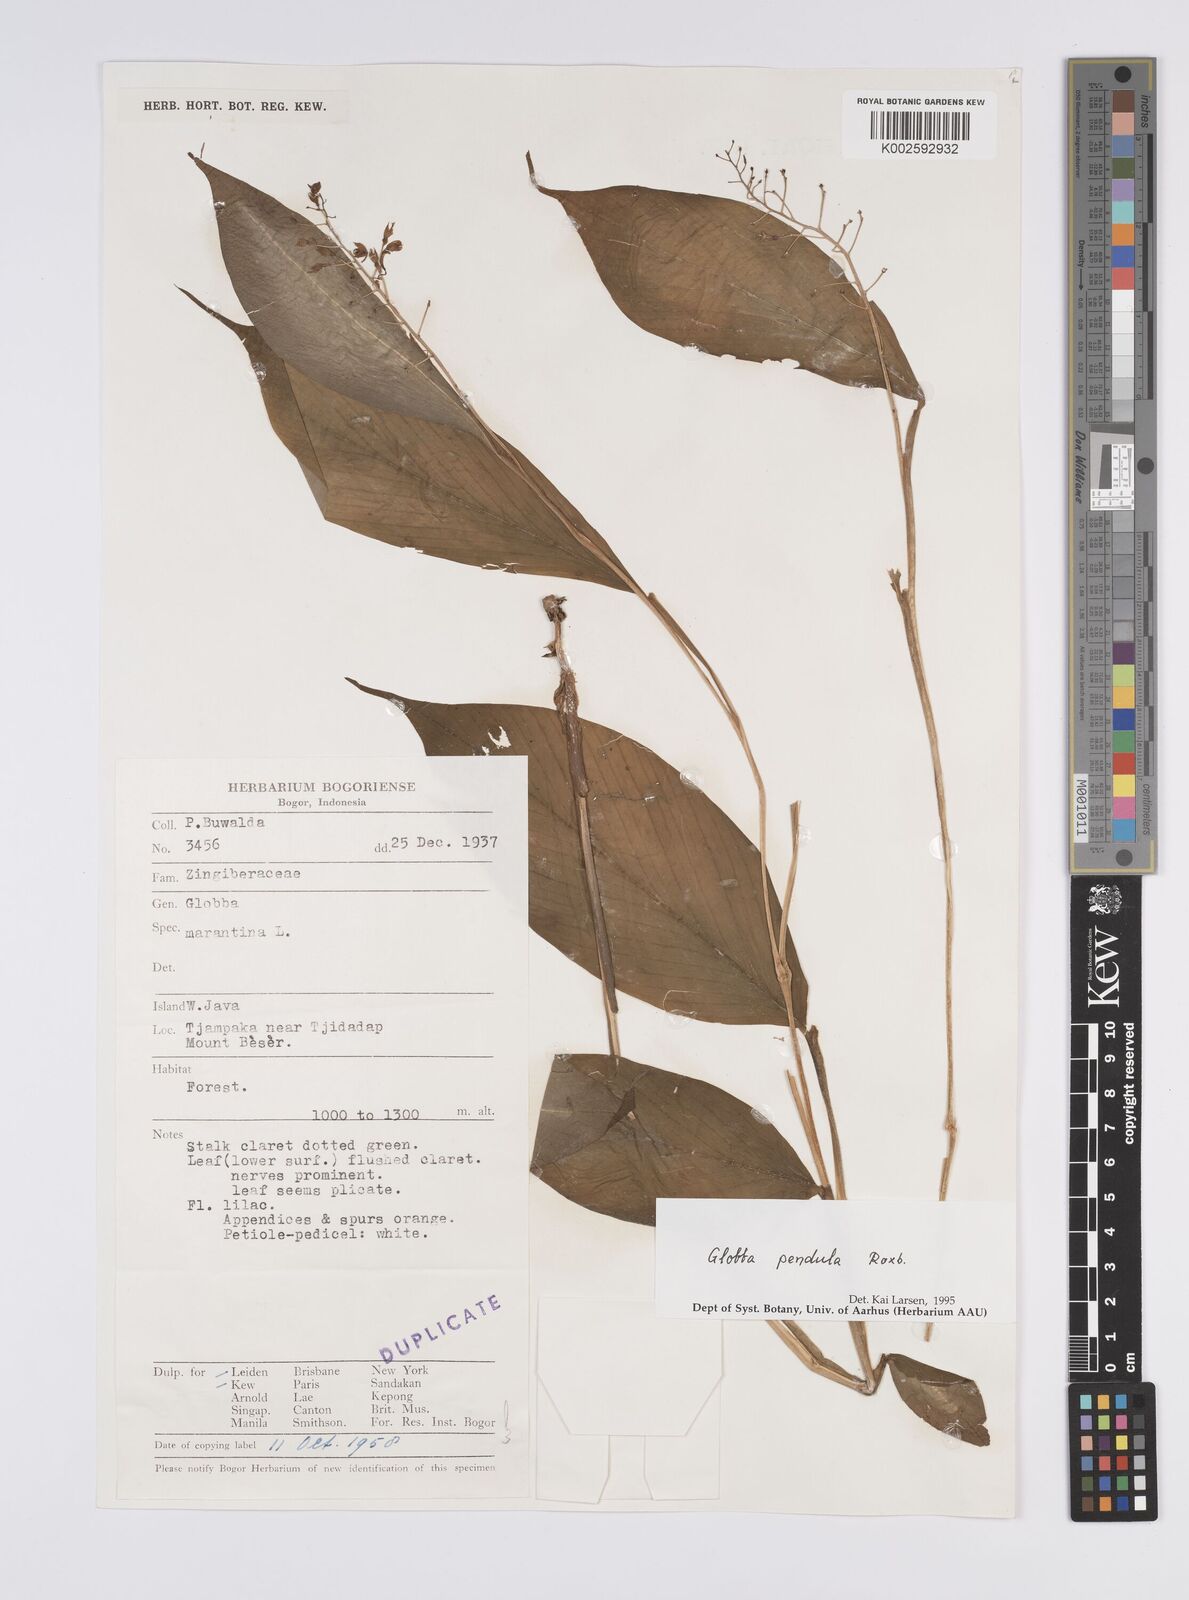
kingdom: Plantae
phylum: Tracheophyta
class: Liliopsida
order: Zingiberales
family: Zingiberaceae
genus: Globba
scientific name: Globba pendula
